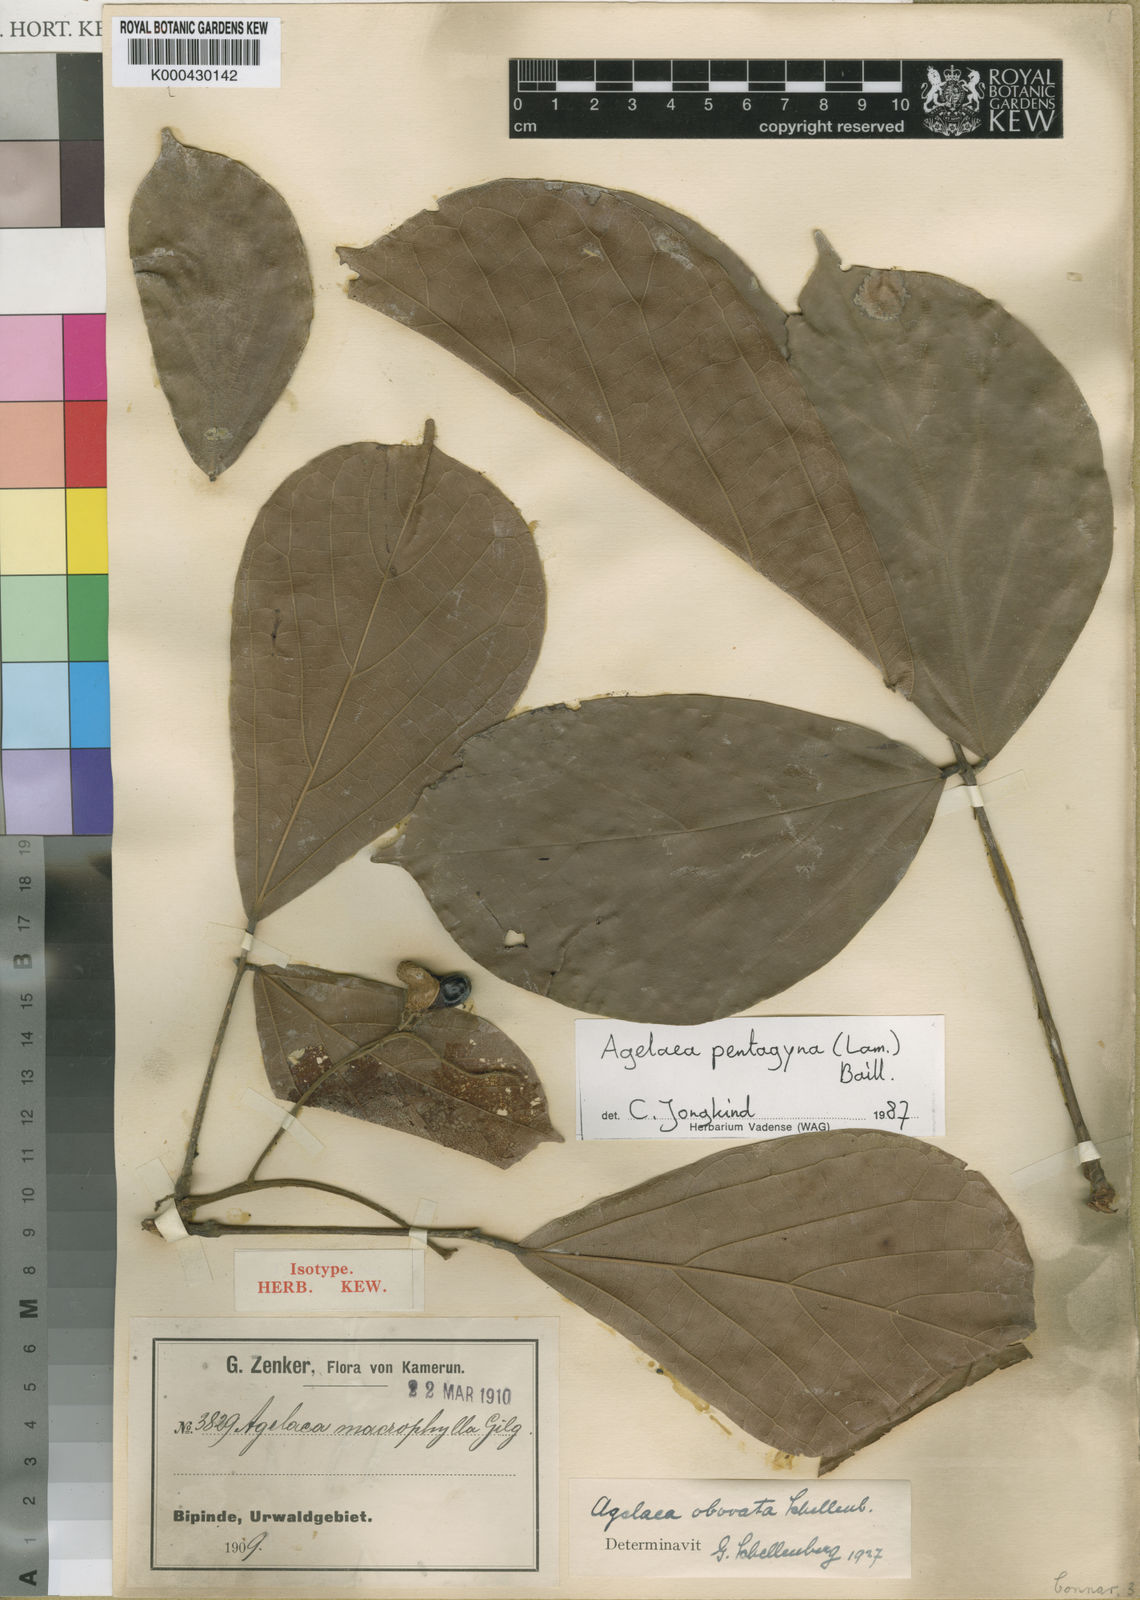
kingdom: Plantae
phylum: Tracheophyta
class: Magnoliopsida
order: Oxalidales
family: Connaraceae
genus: Agelaea
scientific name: Agelaea pentagyna
